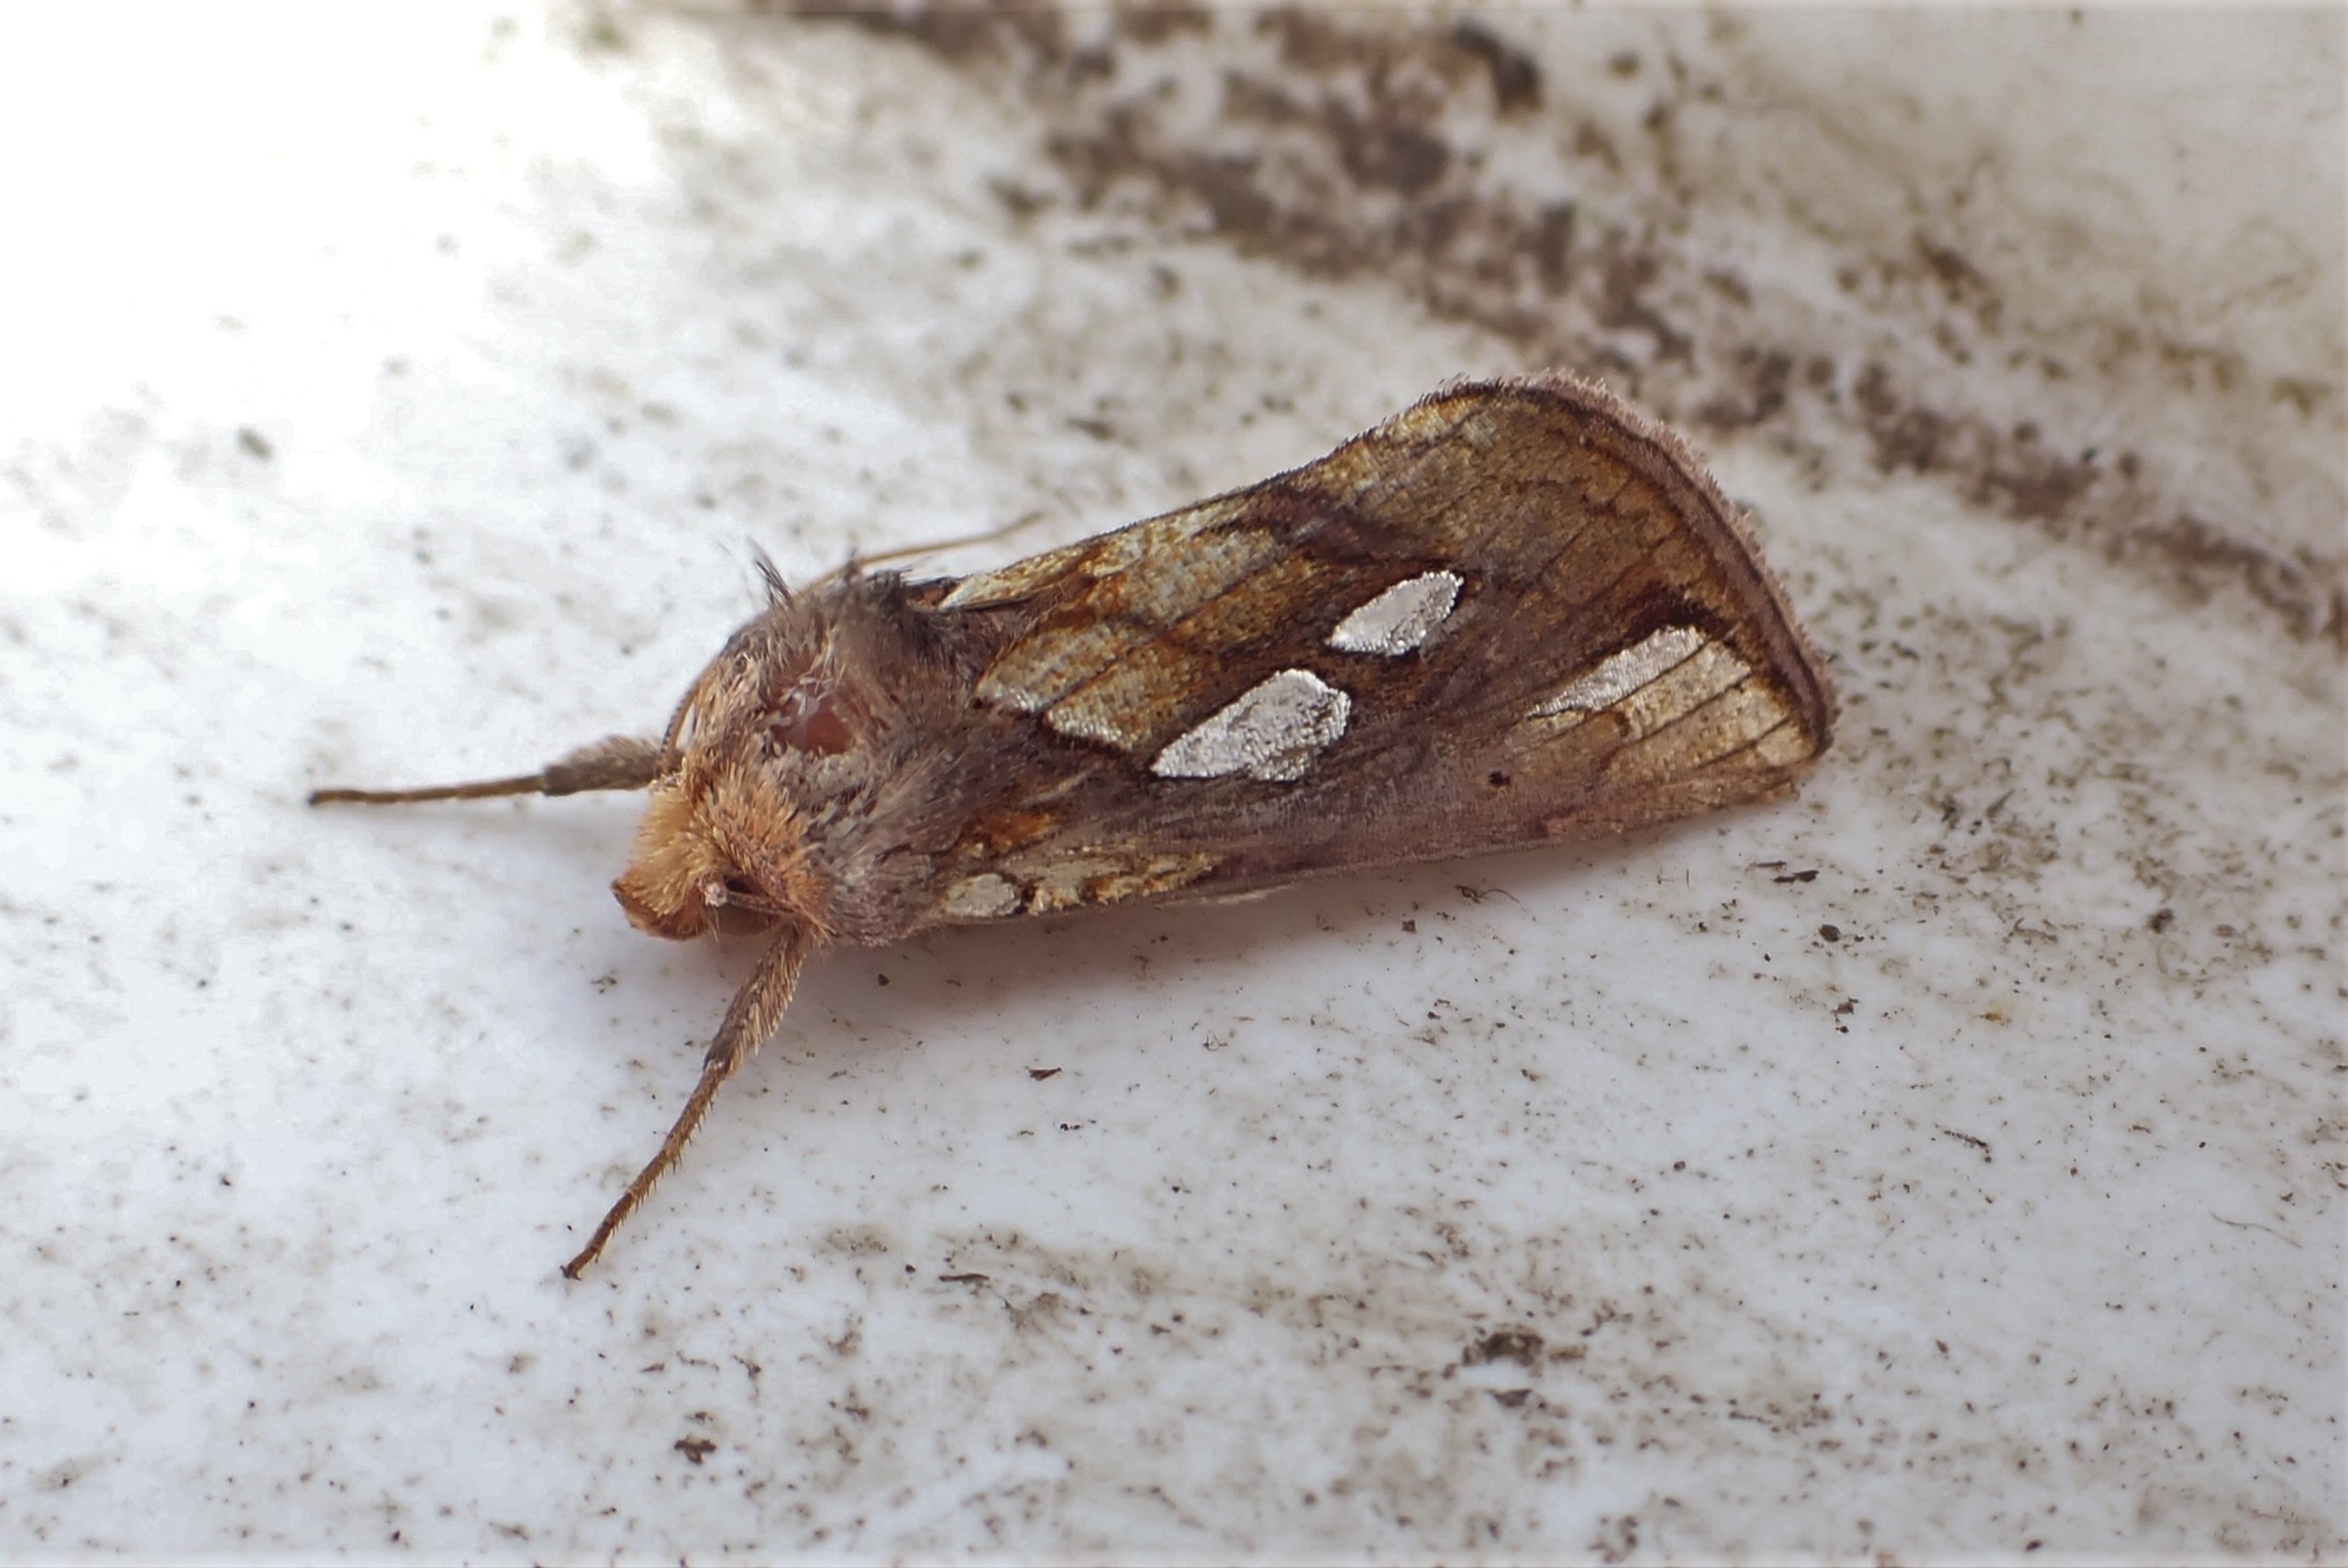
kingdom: Animalia
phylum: Arthropoda
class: Insecta
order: Lepidoptera
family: Noctuidae
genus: Plusia
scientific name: Plusia festucae
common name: Svingelugle
